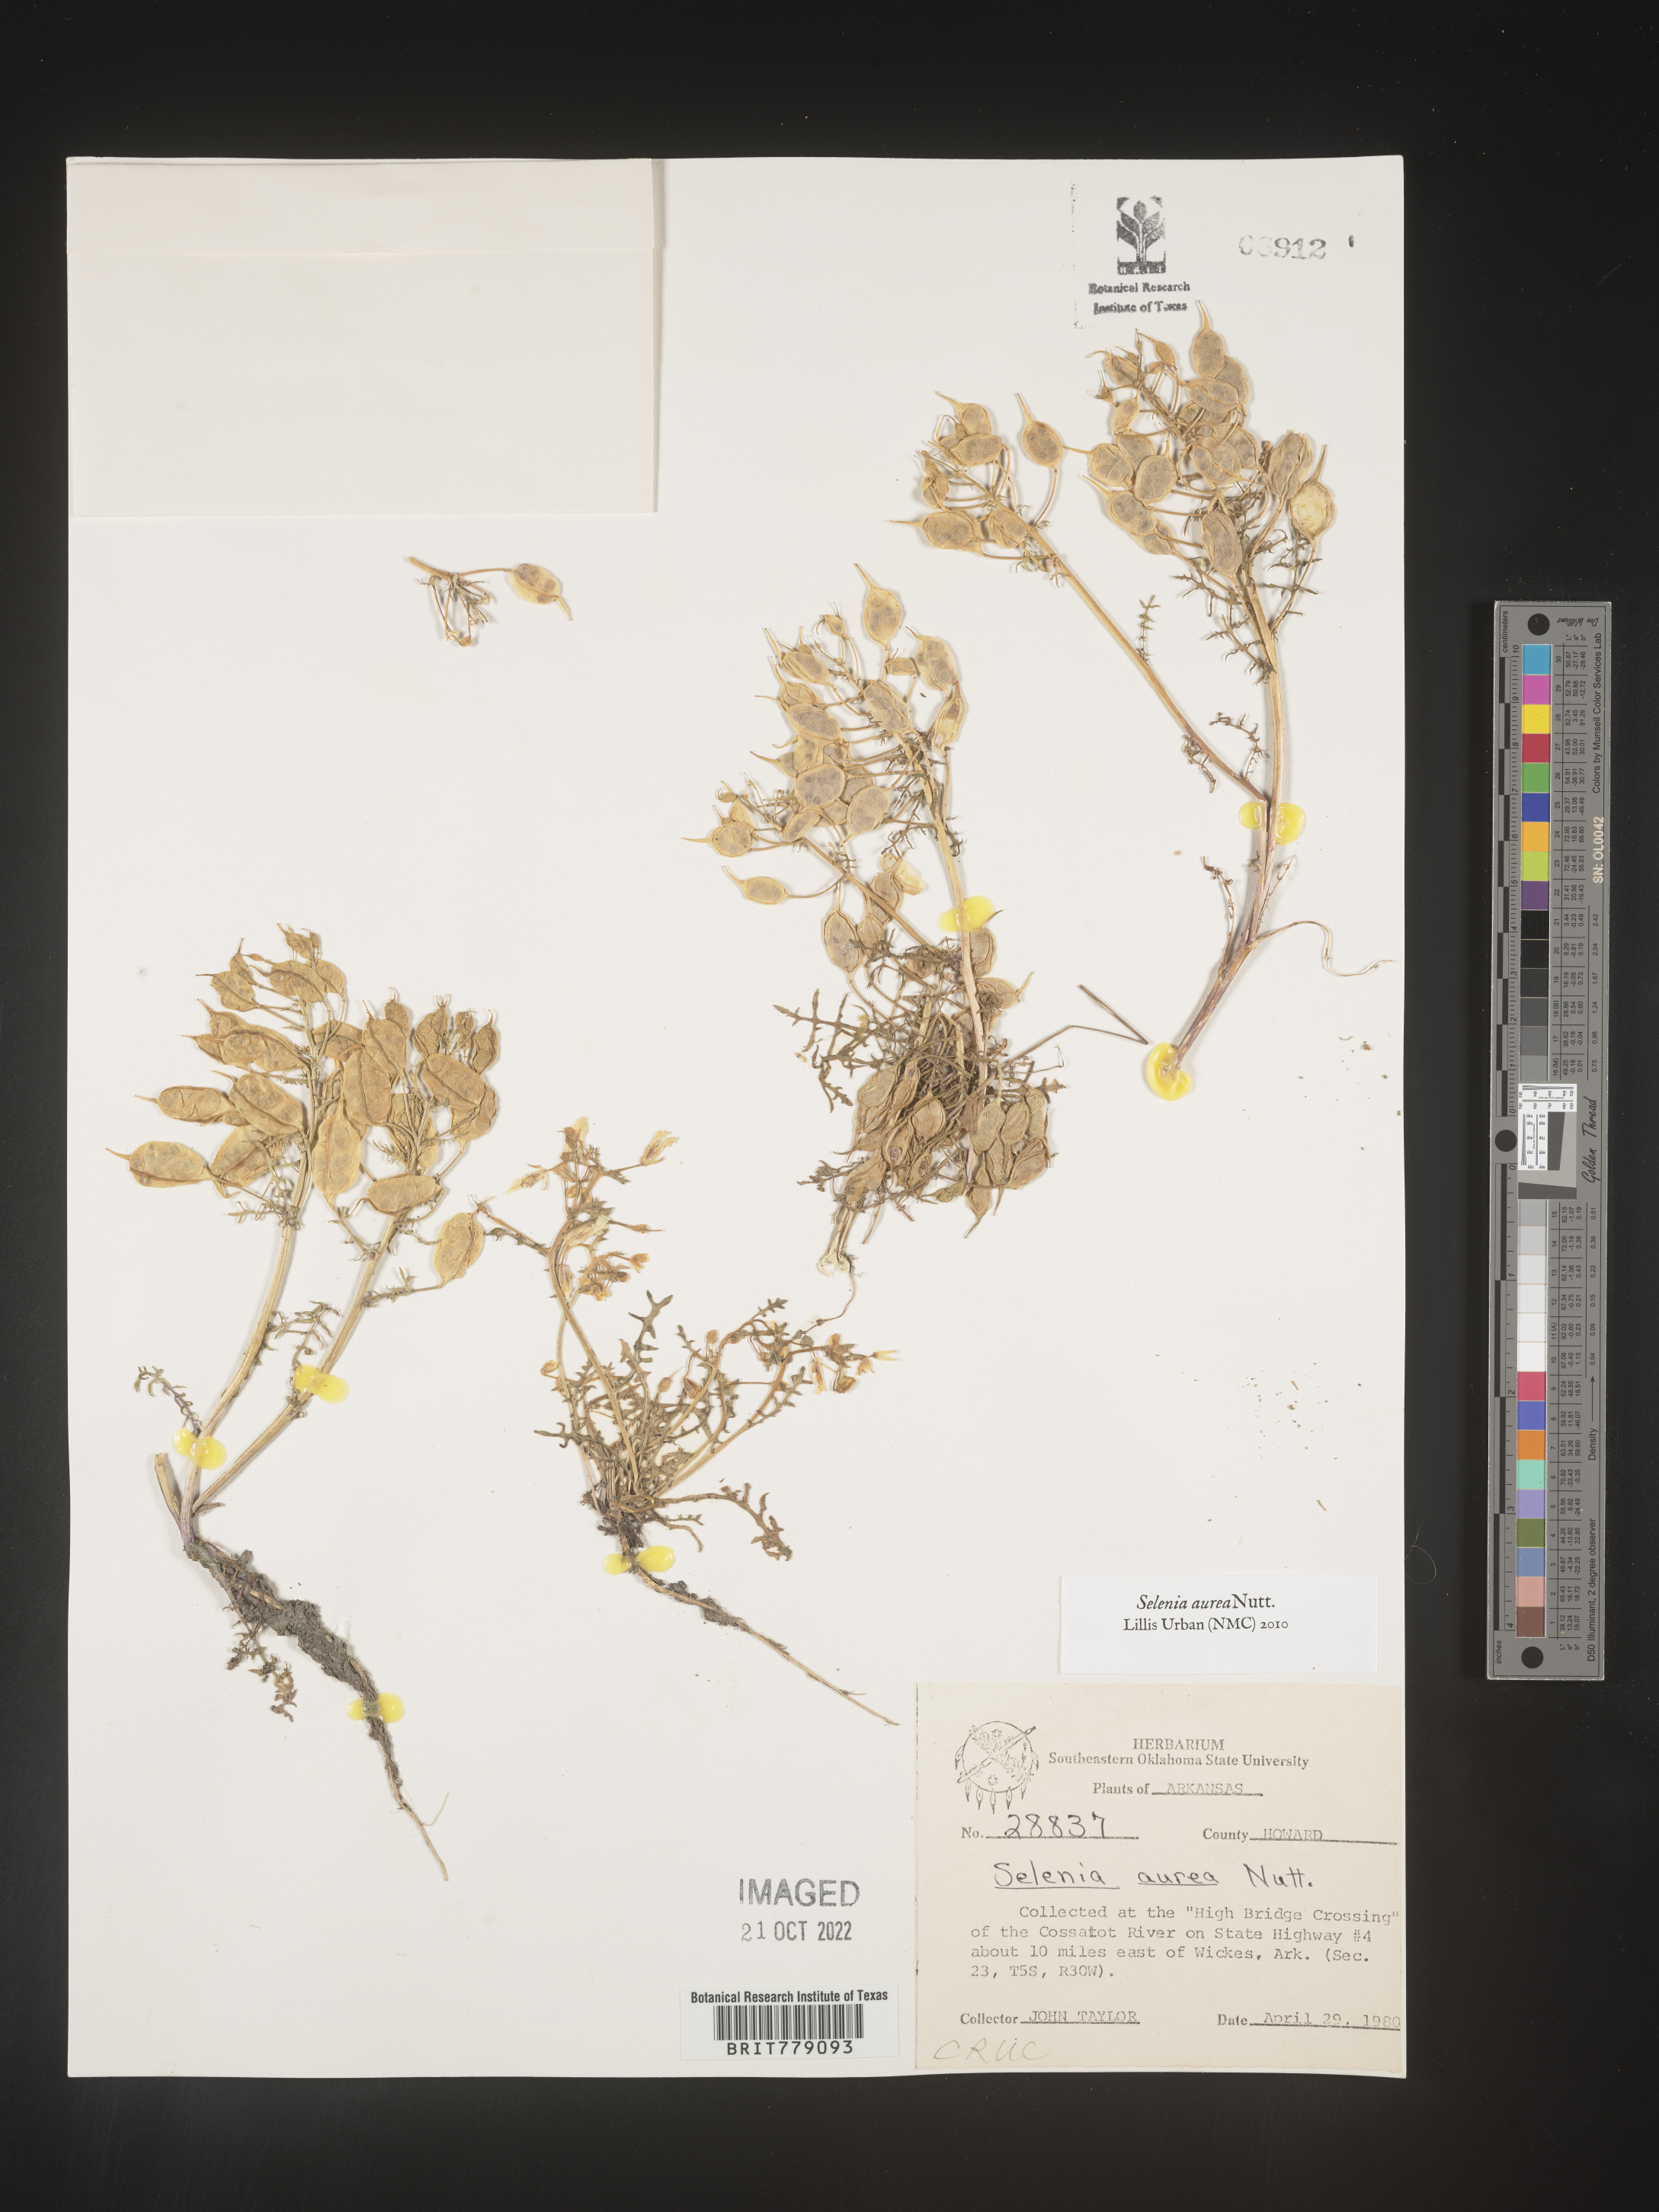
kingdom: Plantae
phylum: Tracheophyta
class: Magnoliopsida
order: Brassicales
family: Brassicaceae
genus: Selenia
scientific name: Selenia
